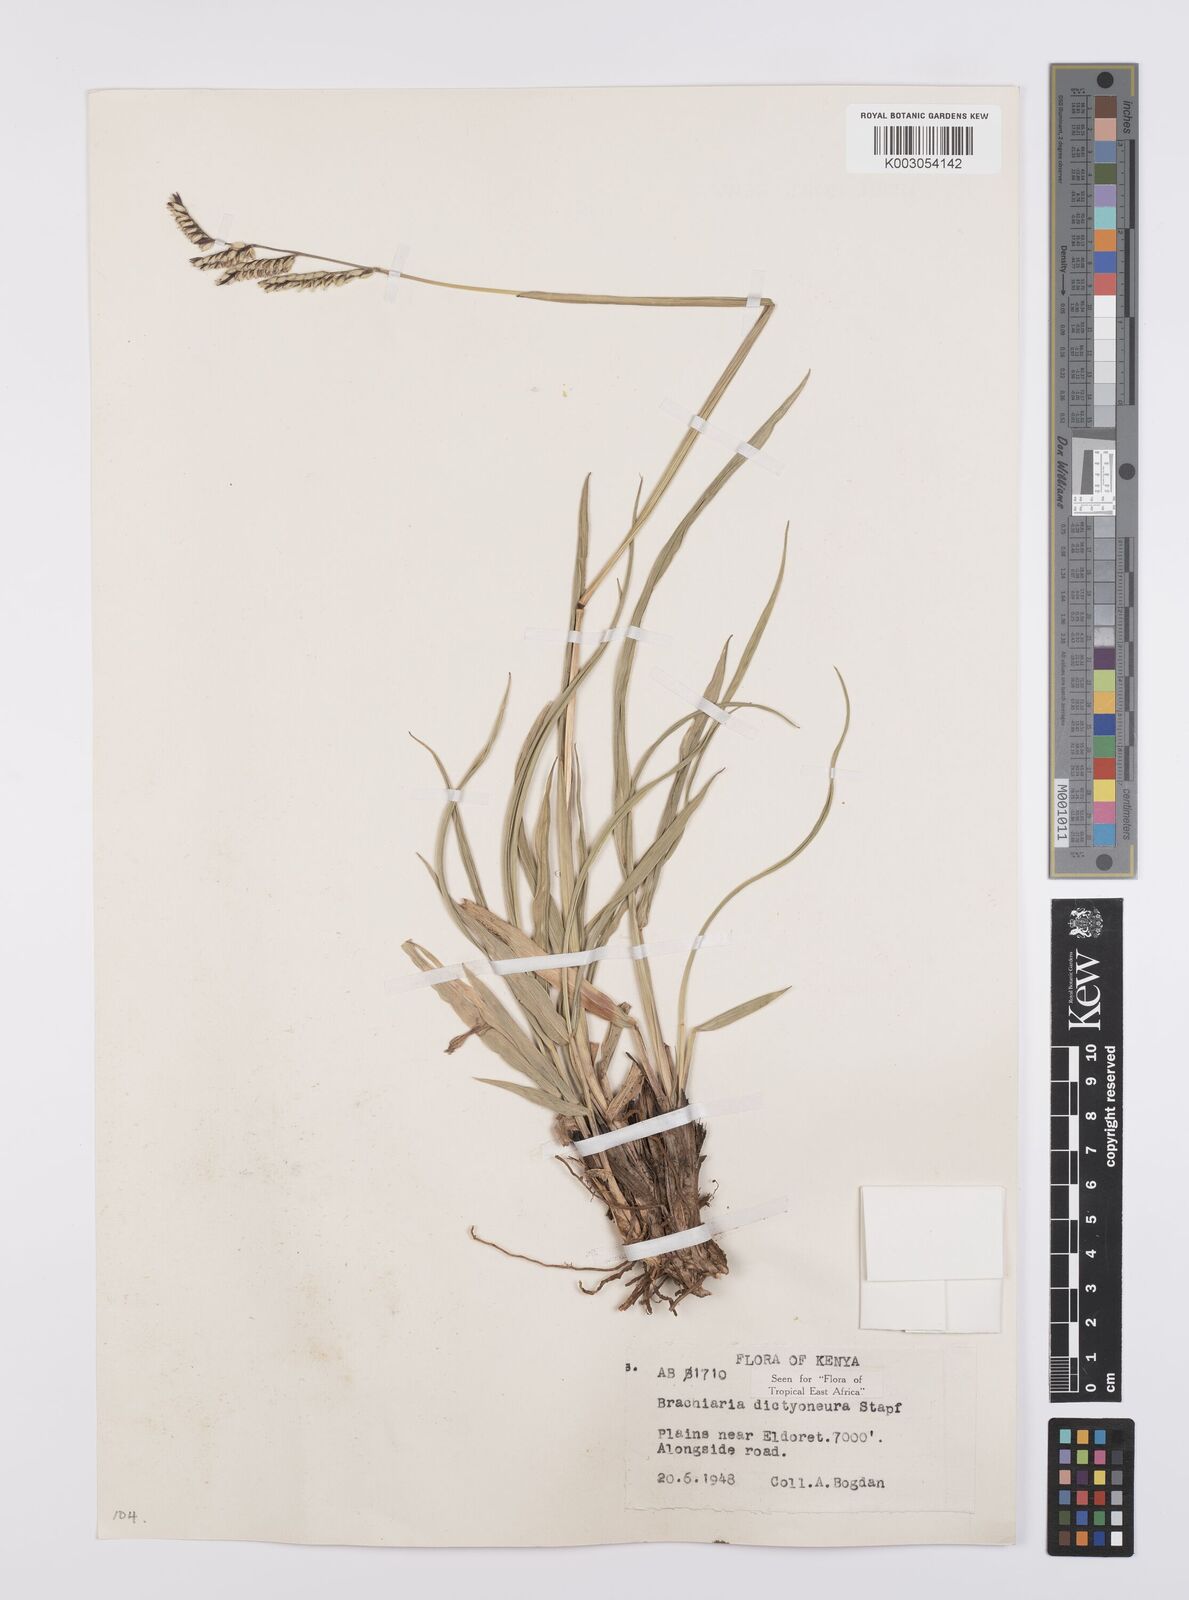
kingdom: Plantae
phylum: Tracheophyta
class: Liliopsida
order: Poales
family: Poaceae
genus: Urochloa
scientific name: Urochloa dictyoneura
